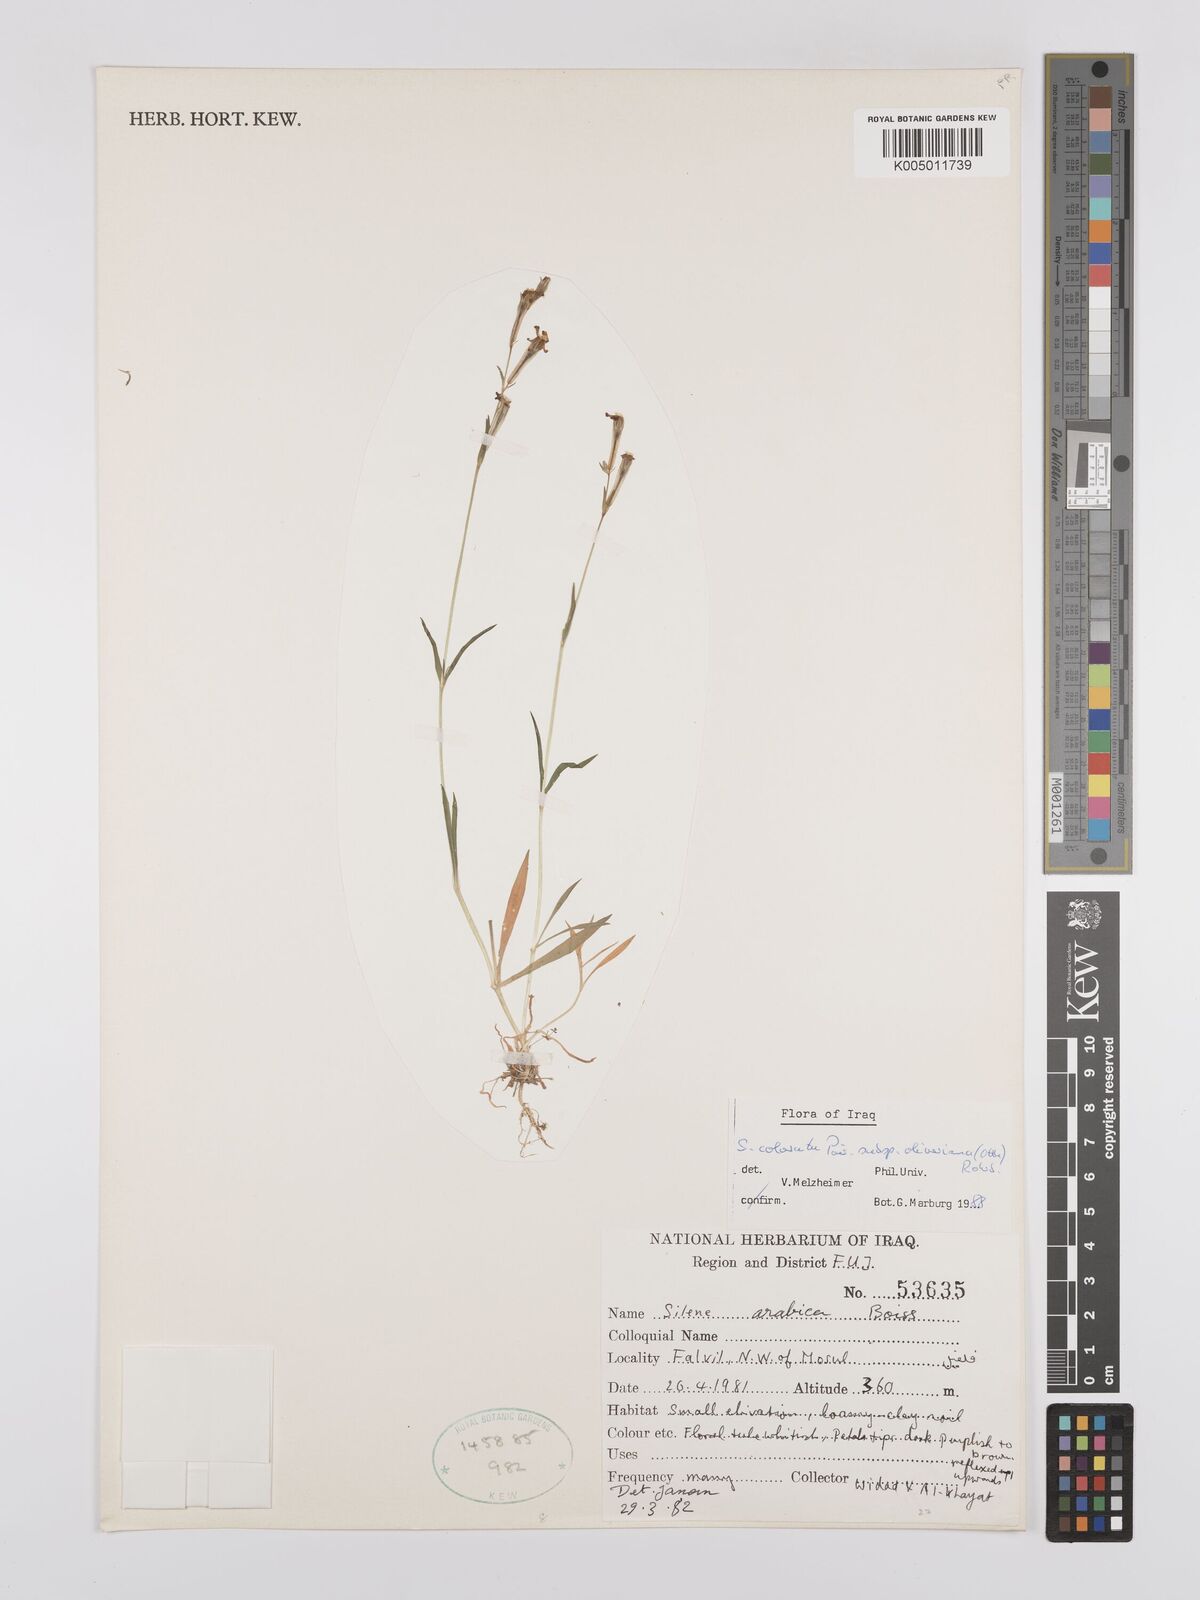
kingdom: Plantae
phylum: Tracheophyta
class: Magnoliopsida
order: Caryophyllales
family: Caryophyllaceae
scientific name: Caryophyllaceae
